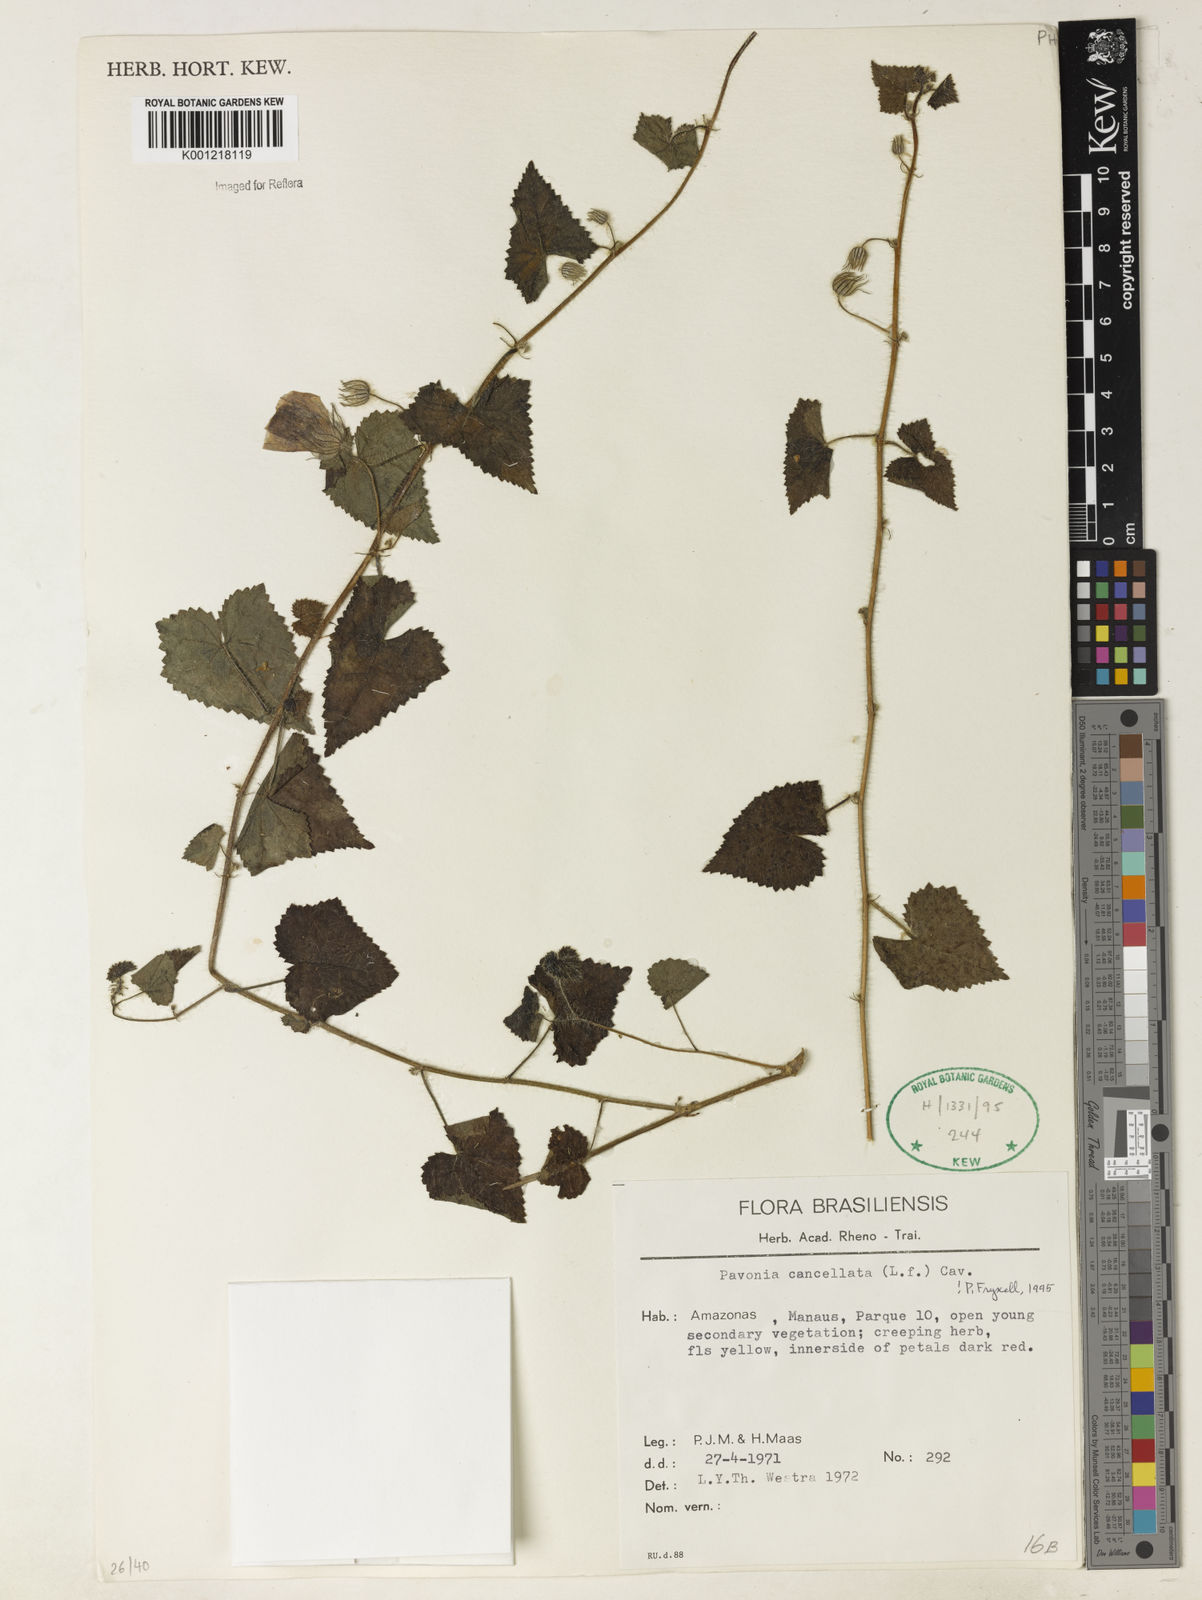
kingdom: Plantae
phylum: Tracheophyta
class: Magnoliopsida
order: Malvales
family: Malvaceae
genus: Pavonia
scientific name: Pavonia cancellata
